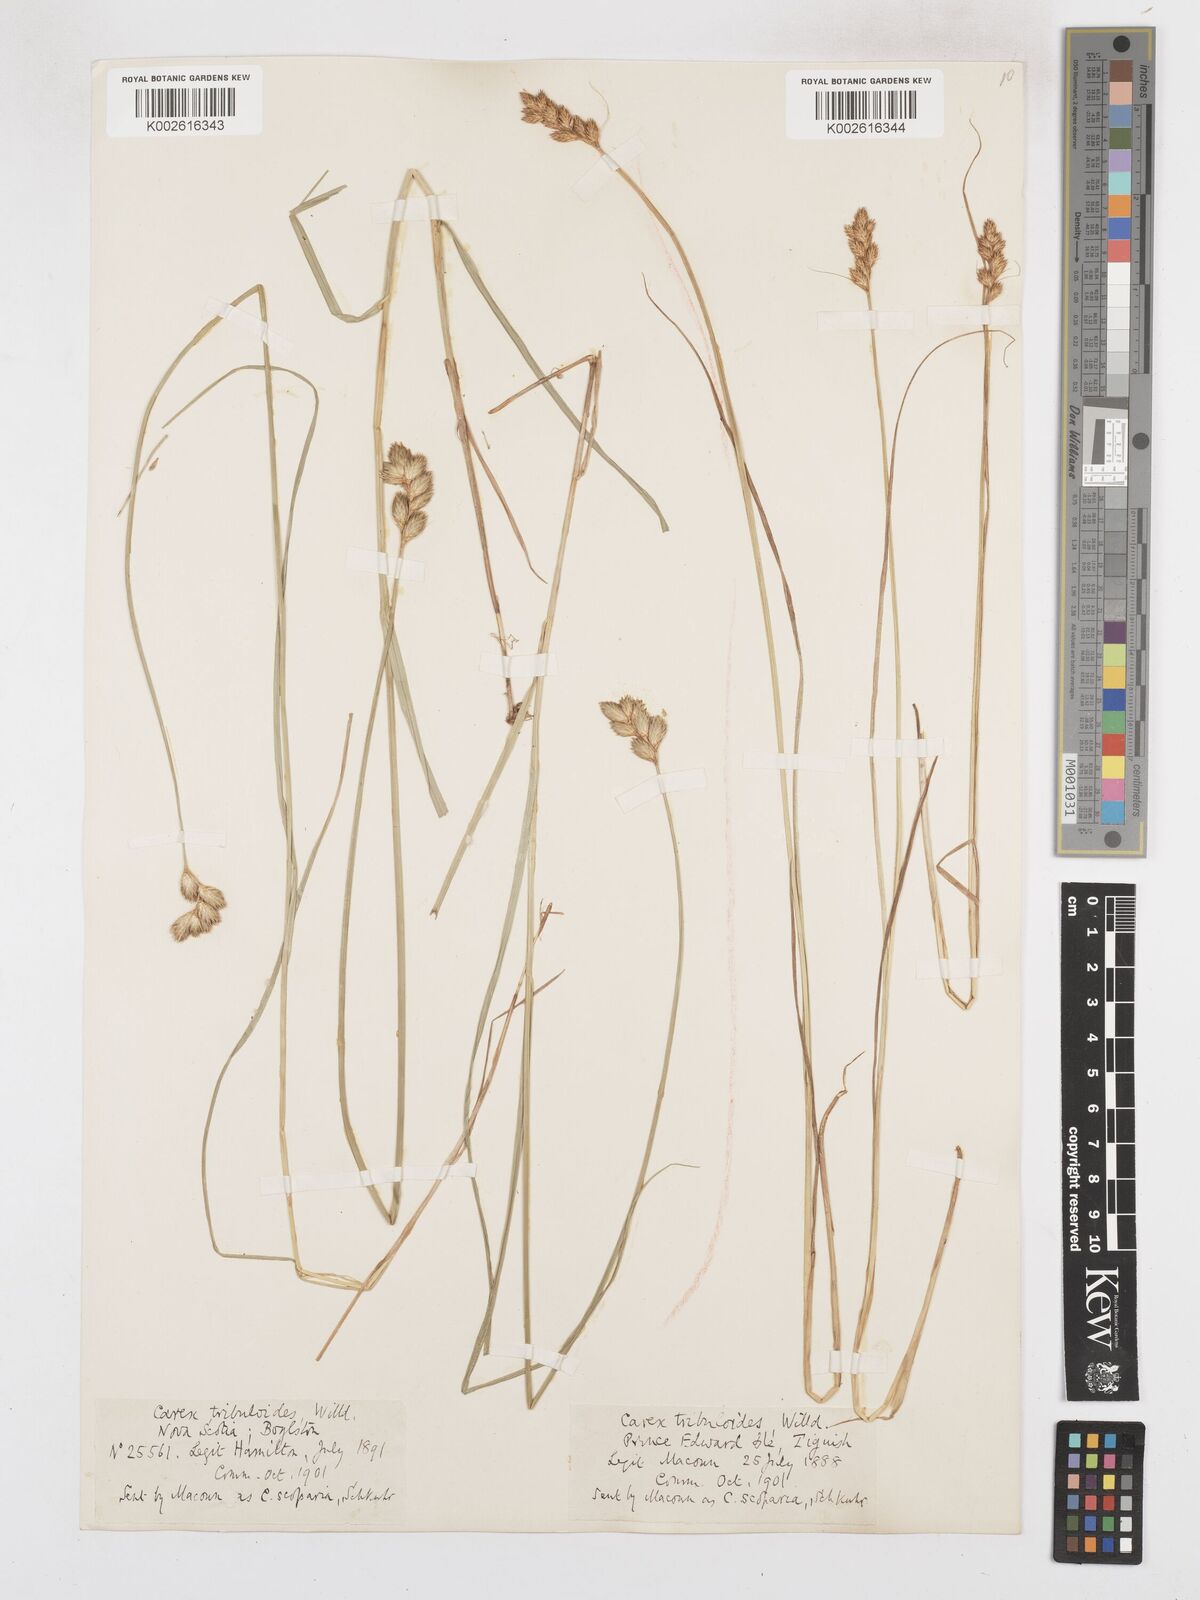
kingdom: Plantae
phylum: Tracheophyta
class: Liliopsida
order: Poales
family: Cyperaceae
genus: Carex
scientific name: Carex tribuloides
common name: Blunt broom sedge
